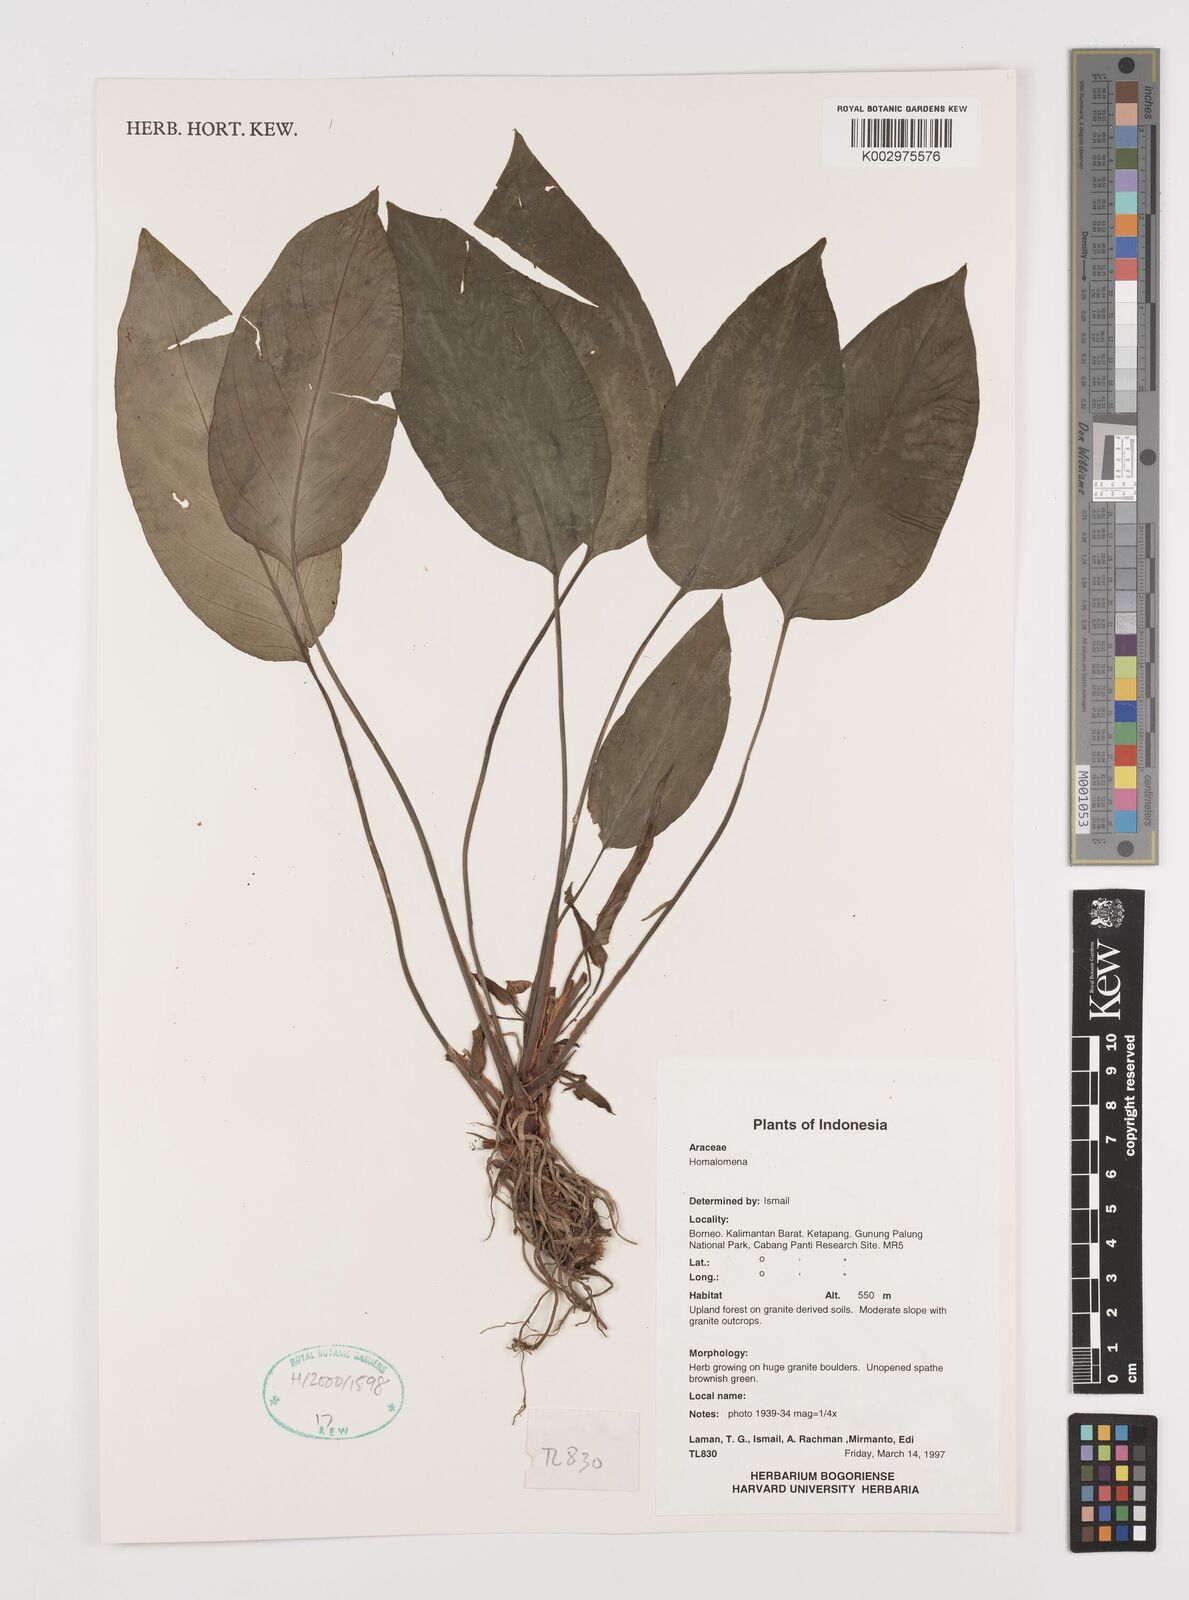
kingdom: Plantae
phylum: Tracheophyta
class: Liliopsida
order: Alismatales
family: Araceae
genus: Homalomena
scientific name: Homalomena
